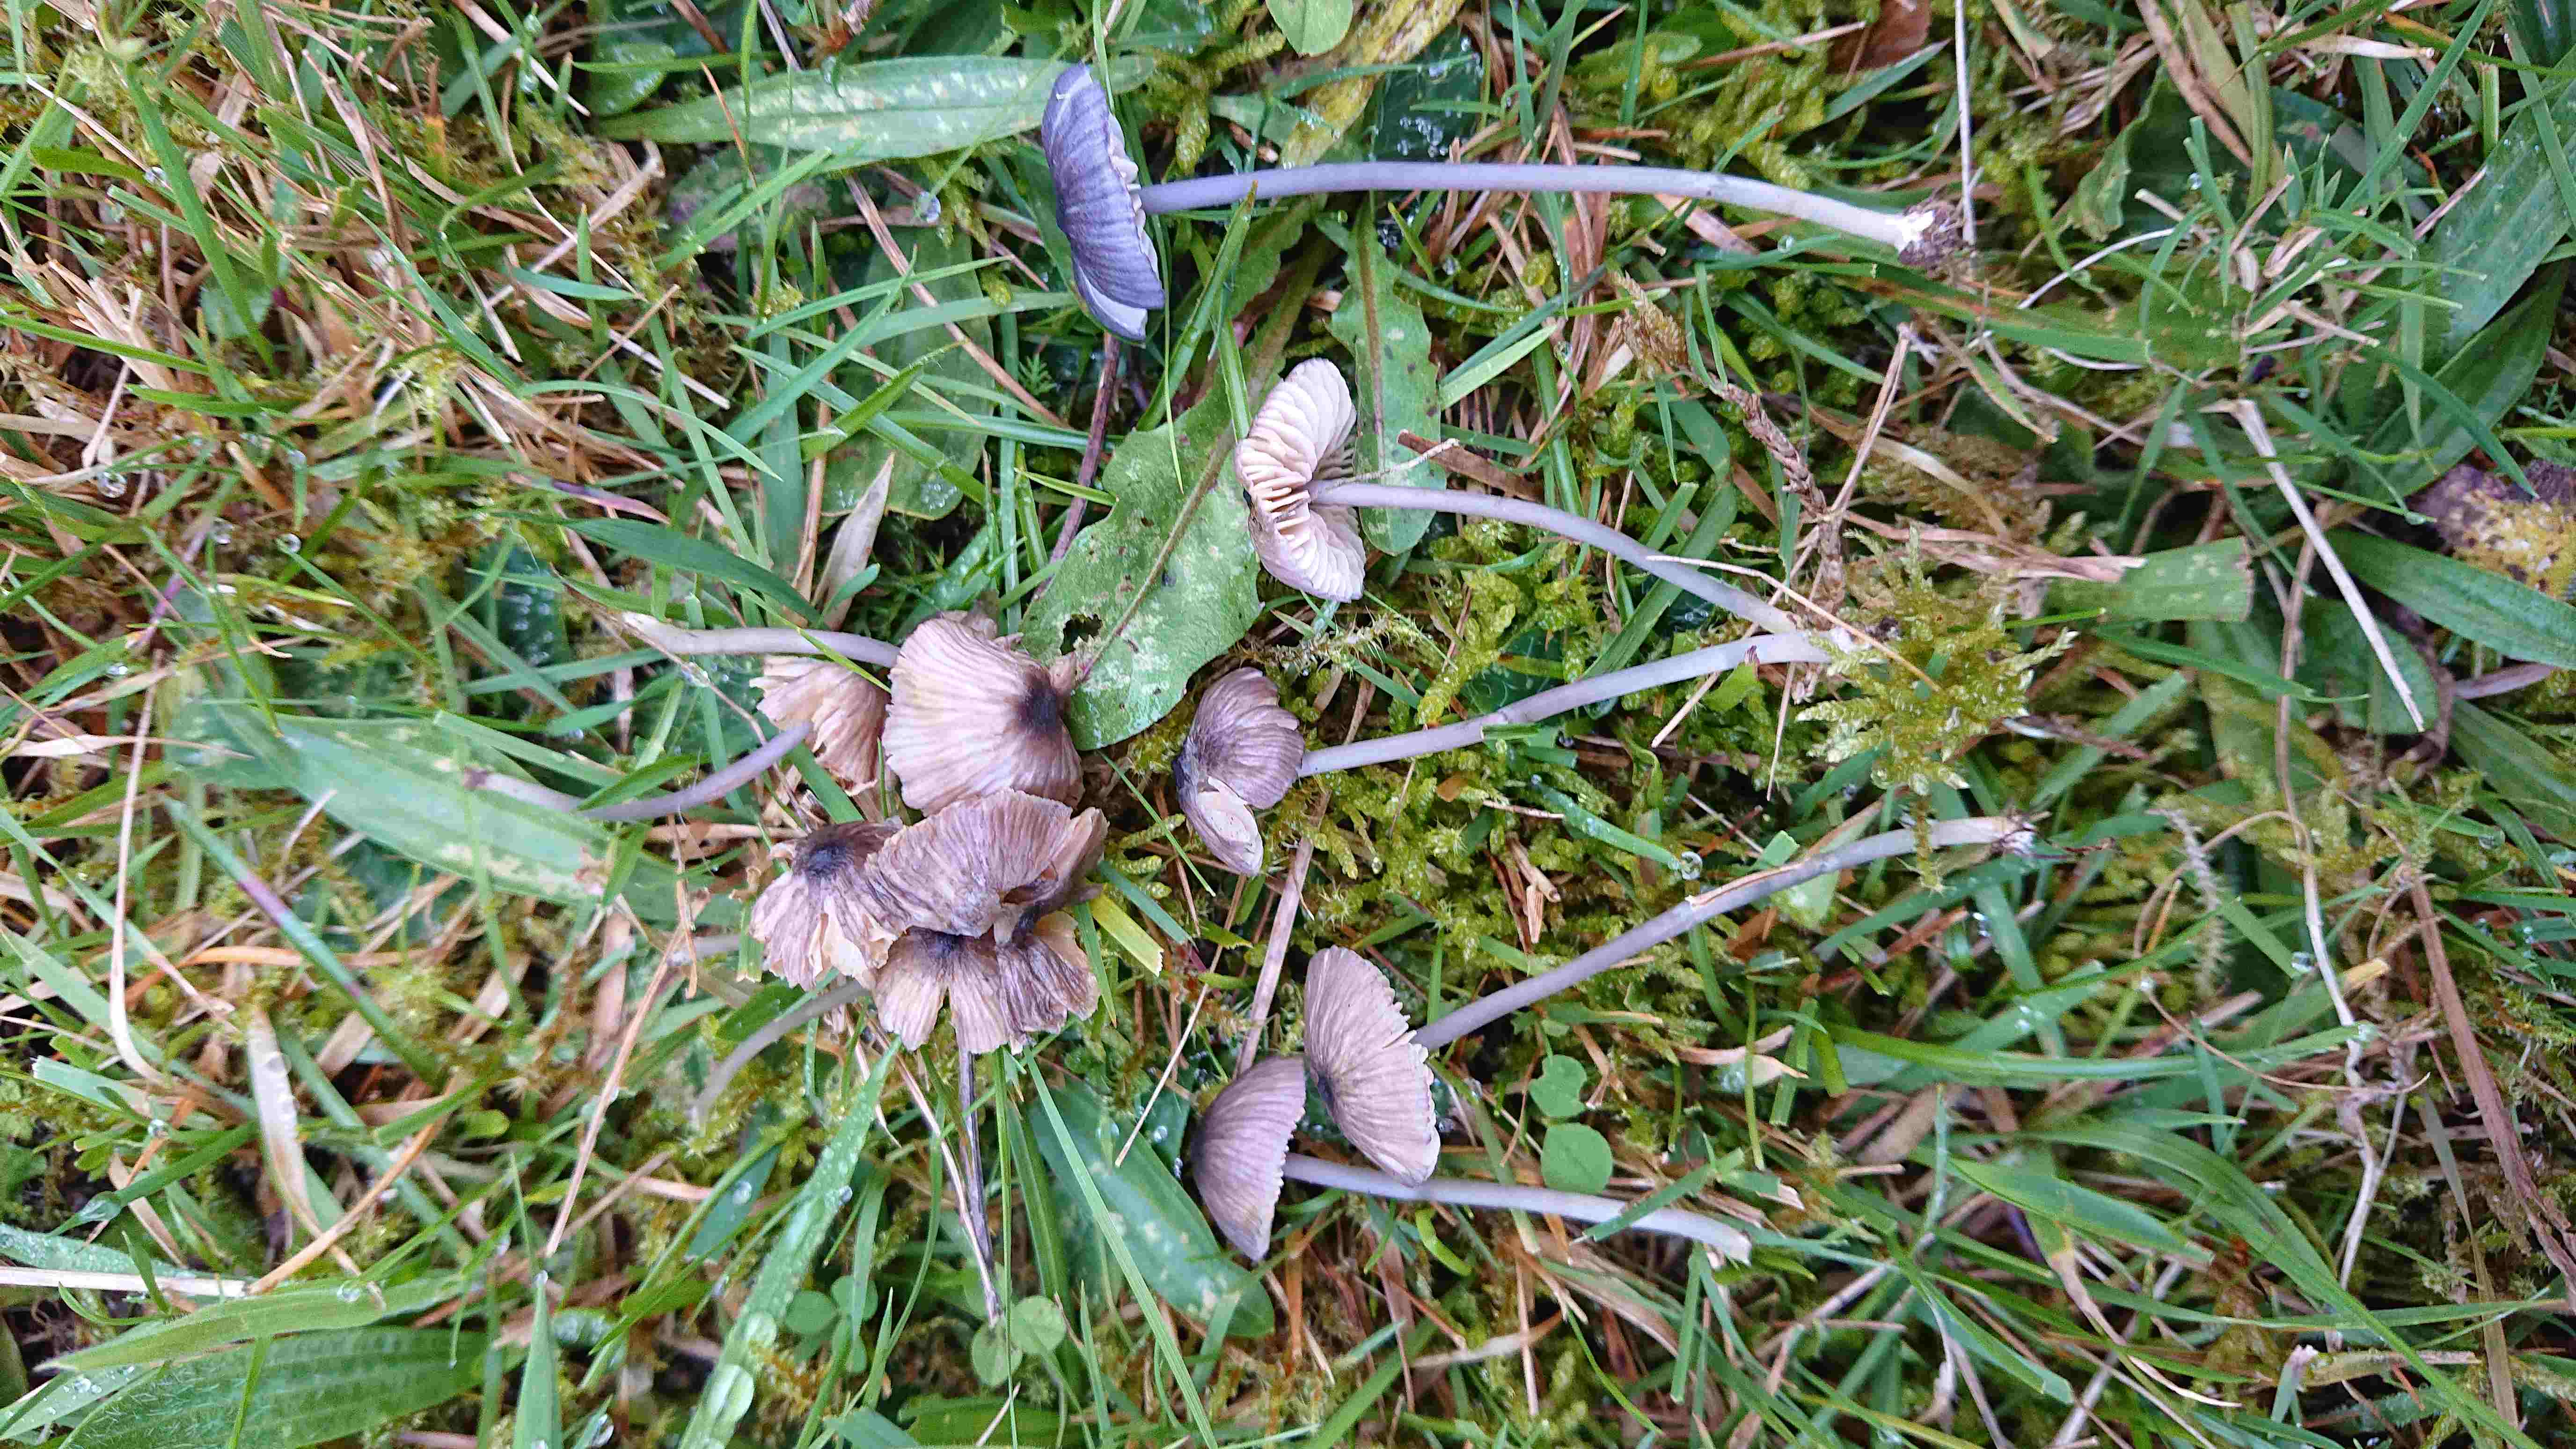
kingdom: Fungi
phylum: Basidiomycota
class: Agaricomycetes
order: Agaricales
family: Entolomataceae
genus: Entoloma
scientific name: Entoloma exile
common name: rødplettet rødblad
